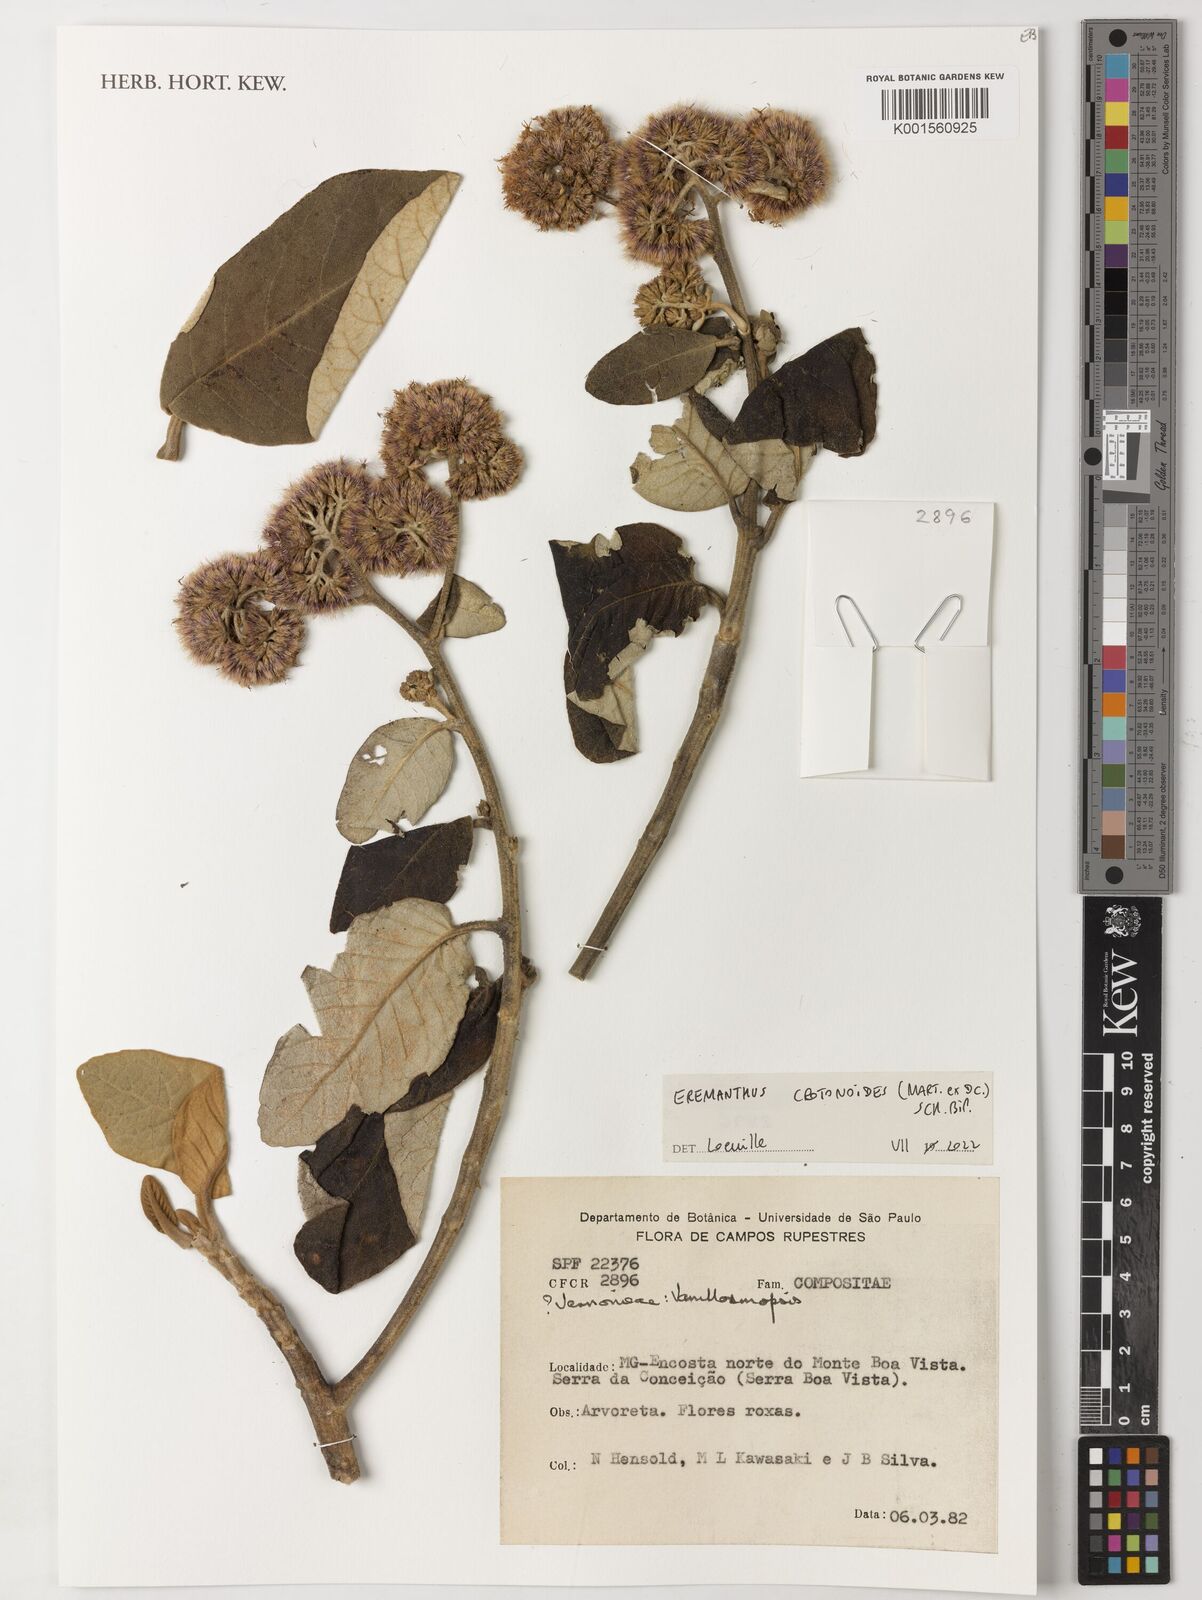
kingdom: Plantae
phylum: Tracheophyta
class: Magnoliopsida
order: Asterales
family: Asteraceae
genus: Eremanthus
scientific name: Eremanthus crotonoides
